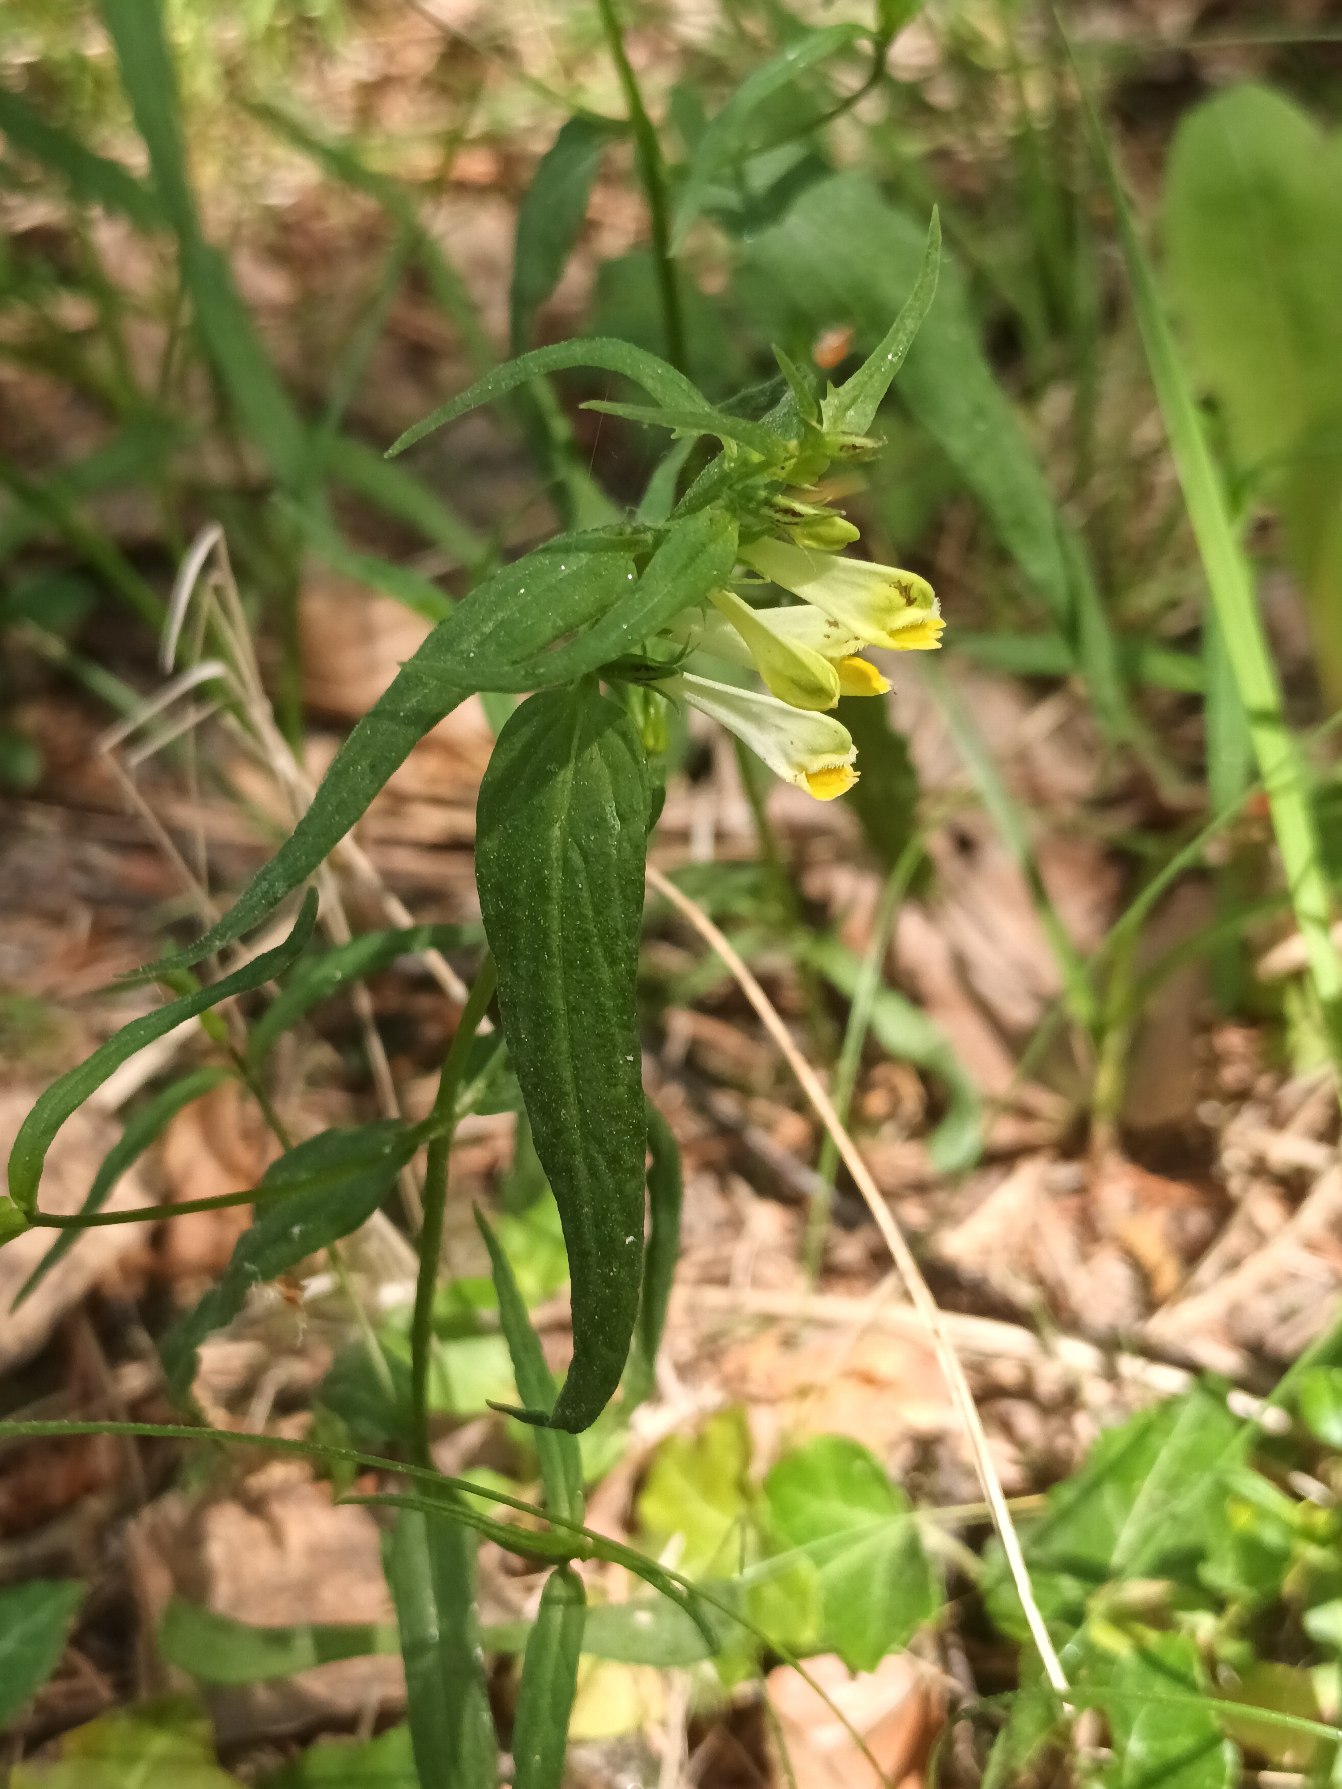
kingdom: Plantae
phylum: Tracheophyta
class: Magnoliopsida
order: Lamiales
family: Orobanchaceae
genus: Melampyrum
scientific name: Melampyrum pratense
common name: Almindelig kohvede
